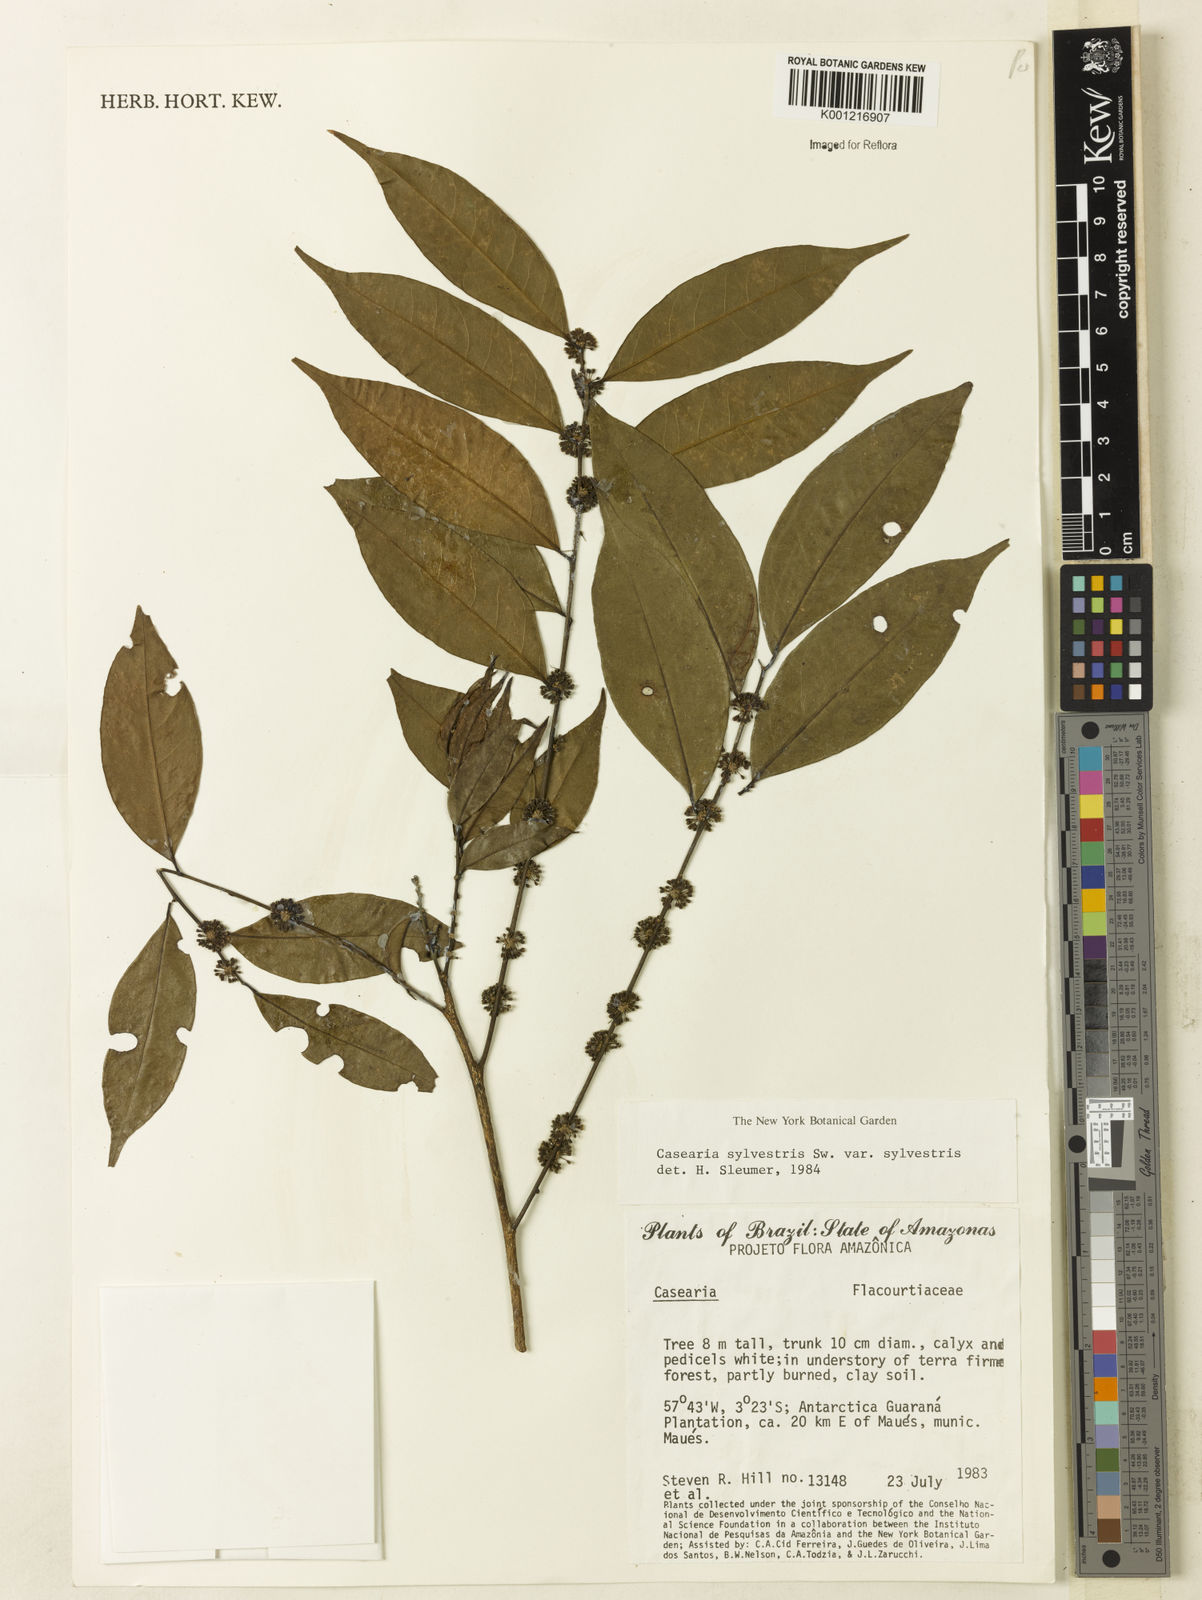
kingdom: Plantae
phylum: Tracheophyta
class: Magnoliopsida
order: Malpighiales
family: Salicaceae
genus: Casearia
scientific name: Casearia sylvestris
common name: Wild sage
